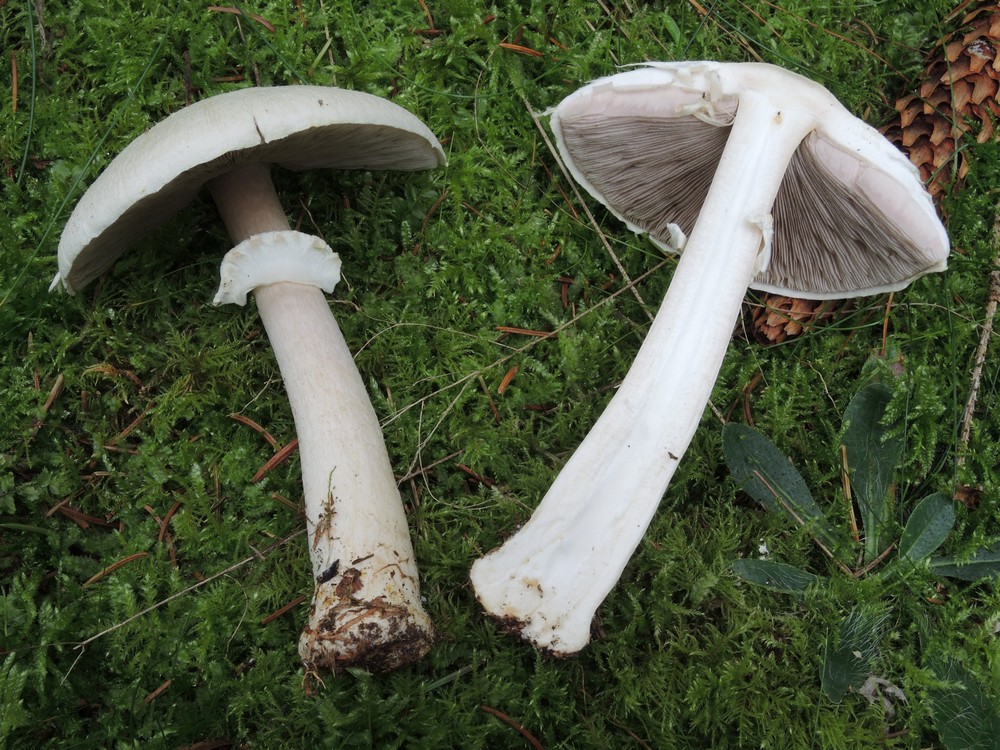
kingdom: Fungi
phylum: Basidiomycota
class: Agaricomycetes
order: Agaricales
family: Agaricaceae
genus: Agaricus
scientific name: Agaricus sylvicola
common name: skiveknoldet champignon
